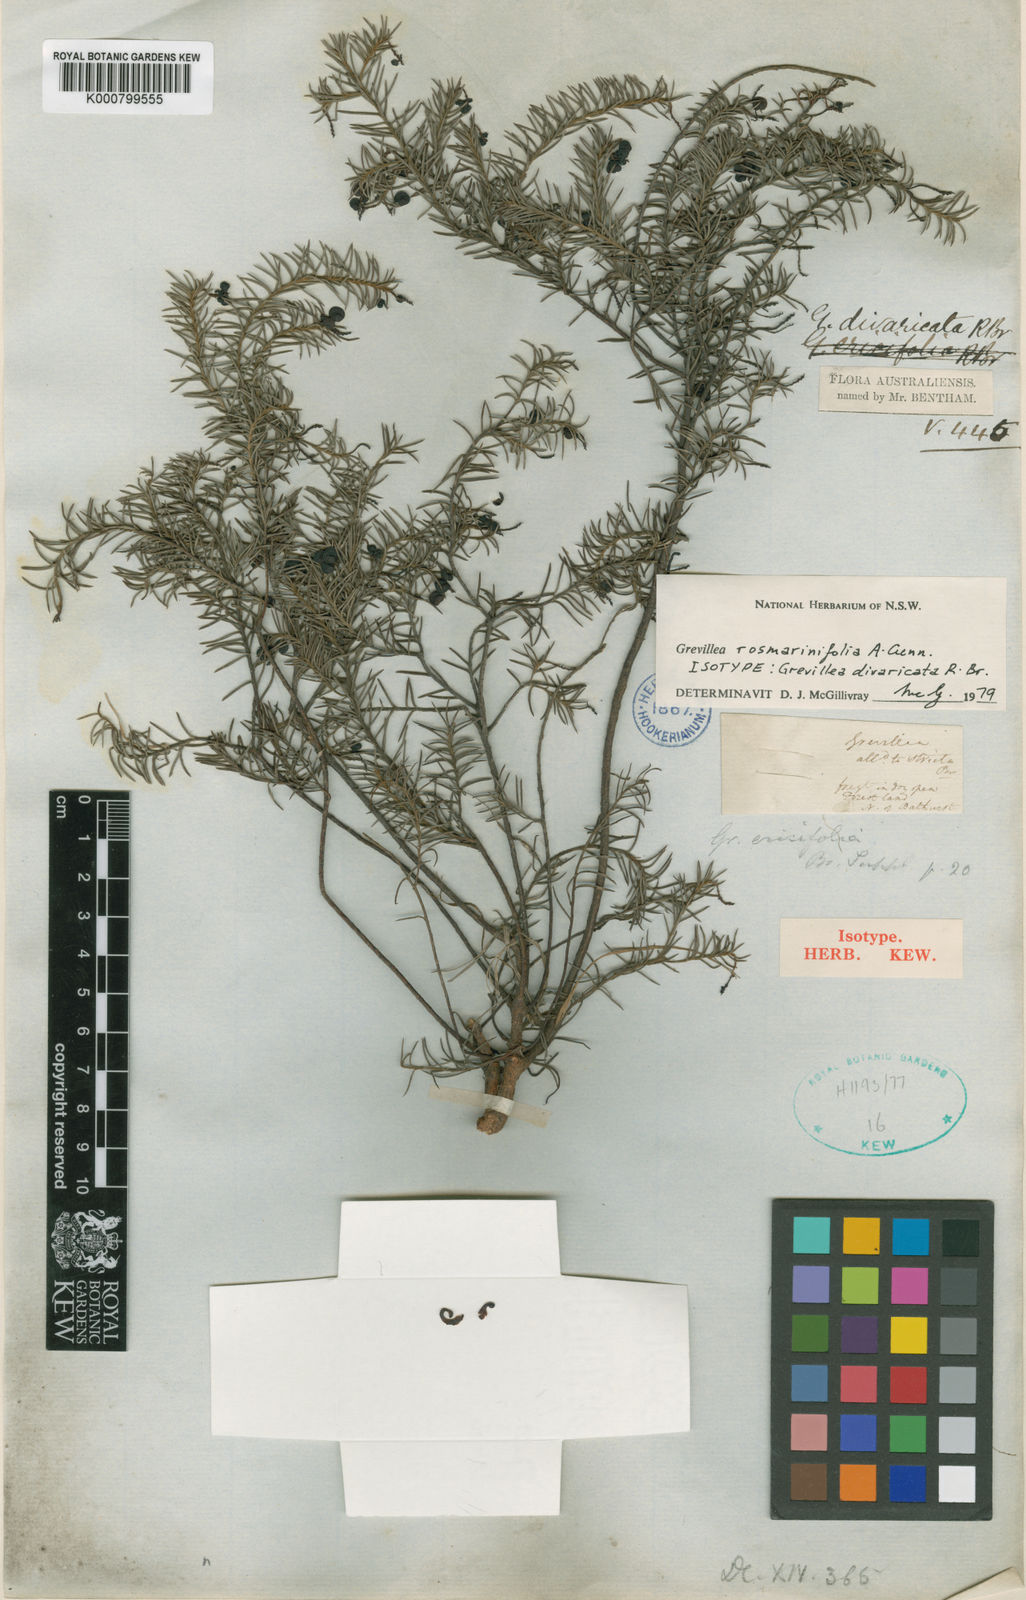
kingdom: Plantae
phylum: Tracheophyta
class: Magnoliopsida
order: Proteales
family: Proteaceae
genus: Grevillea
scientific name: Grevillea divaricata
